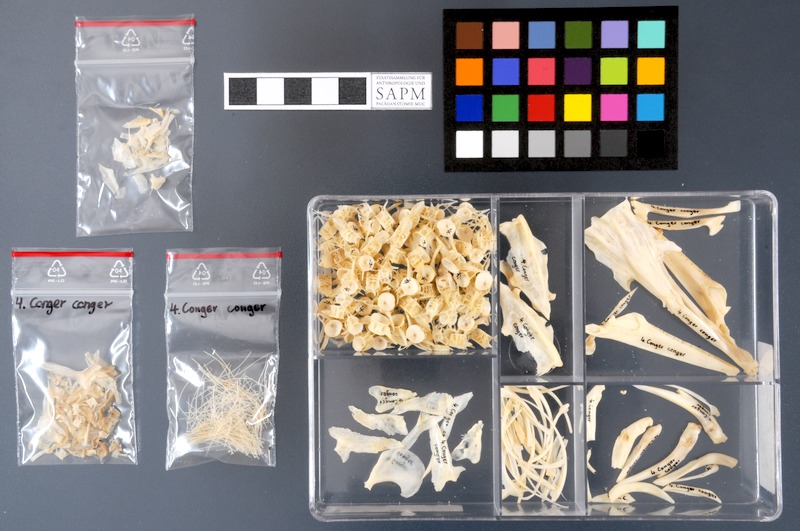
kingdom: Animalia
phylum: Chordata
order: Anguilliformes
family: Congridae
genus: Conger
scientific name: Conger conger
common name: Conger eel
